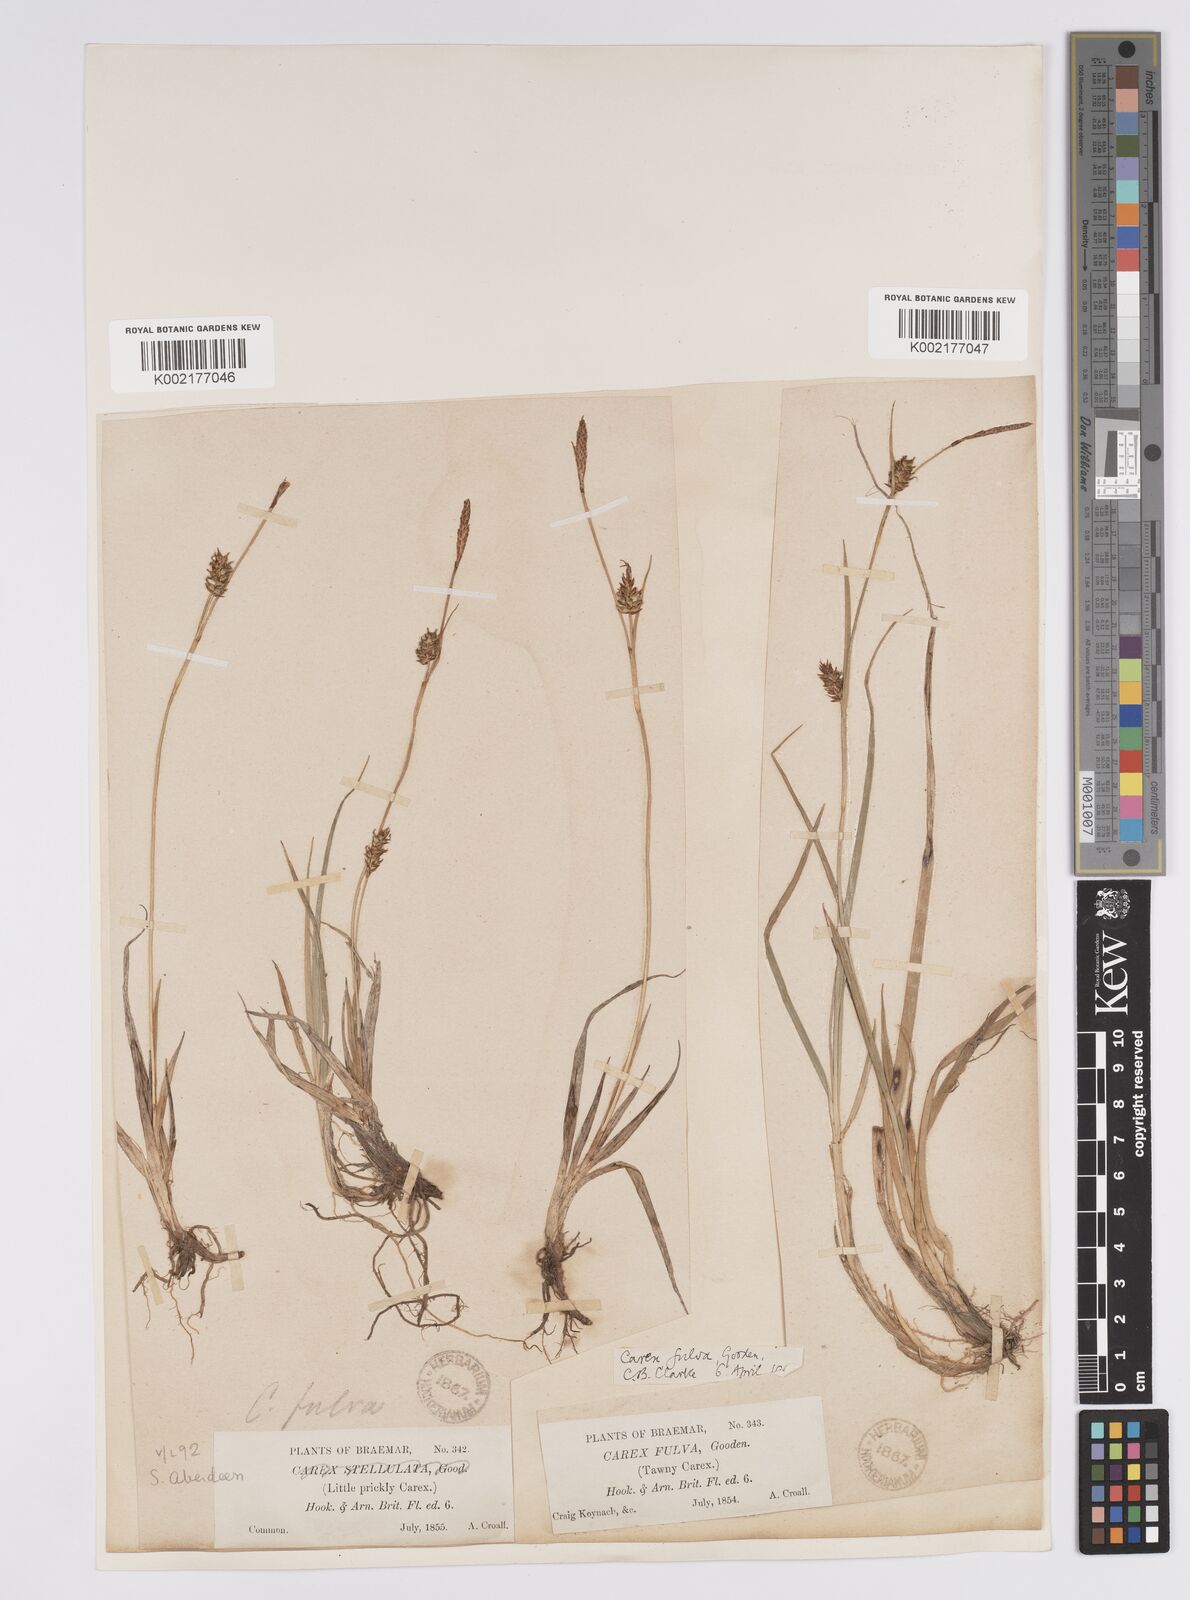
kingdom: Plantae
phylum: Tracheophyta
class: Liliopsida
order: Poales
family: Cyperaceae
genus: Carex
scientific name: Carex hostiana
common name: Tawny sedge
